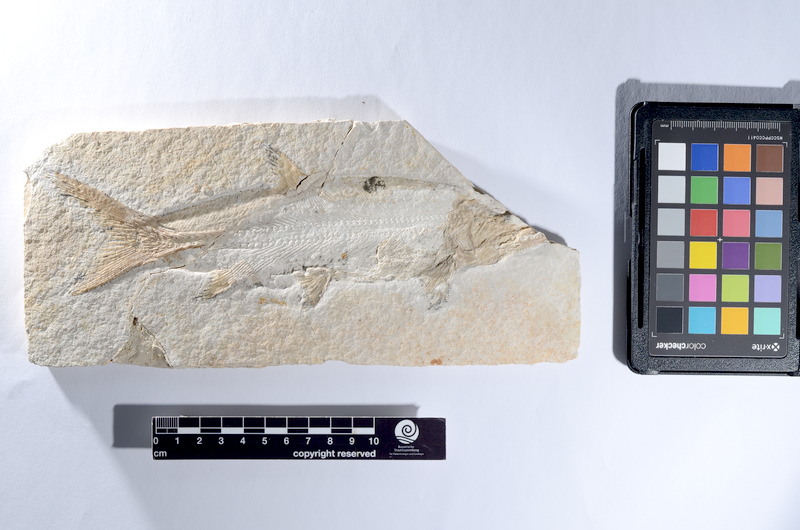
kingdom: Animalia
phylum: Chordata
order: Amiiformes
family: Caturidae
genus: Caturus
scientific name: Caturus furcatus
